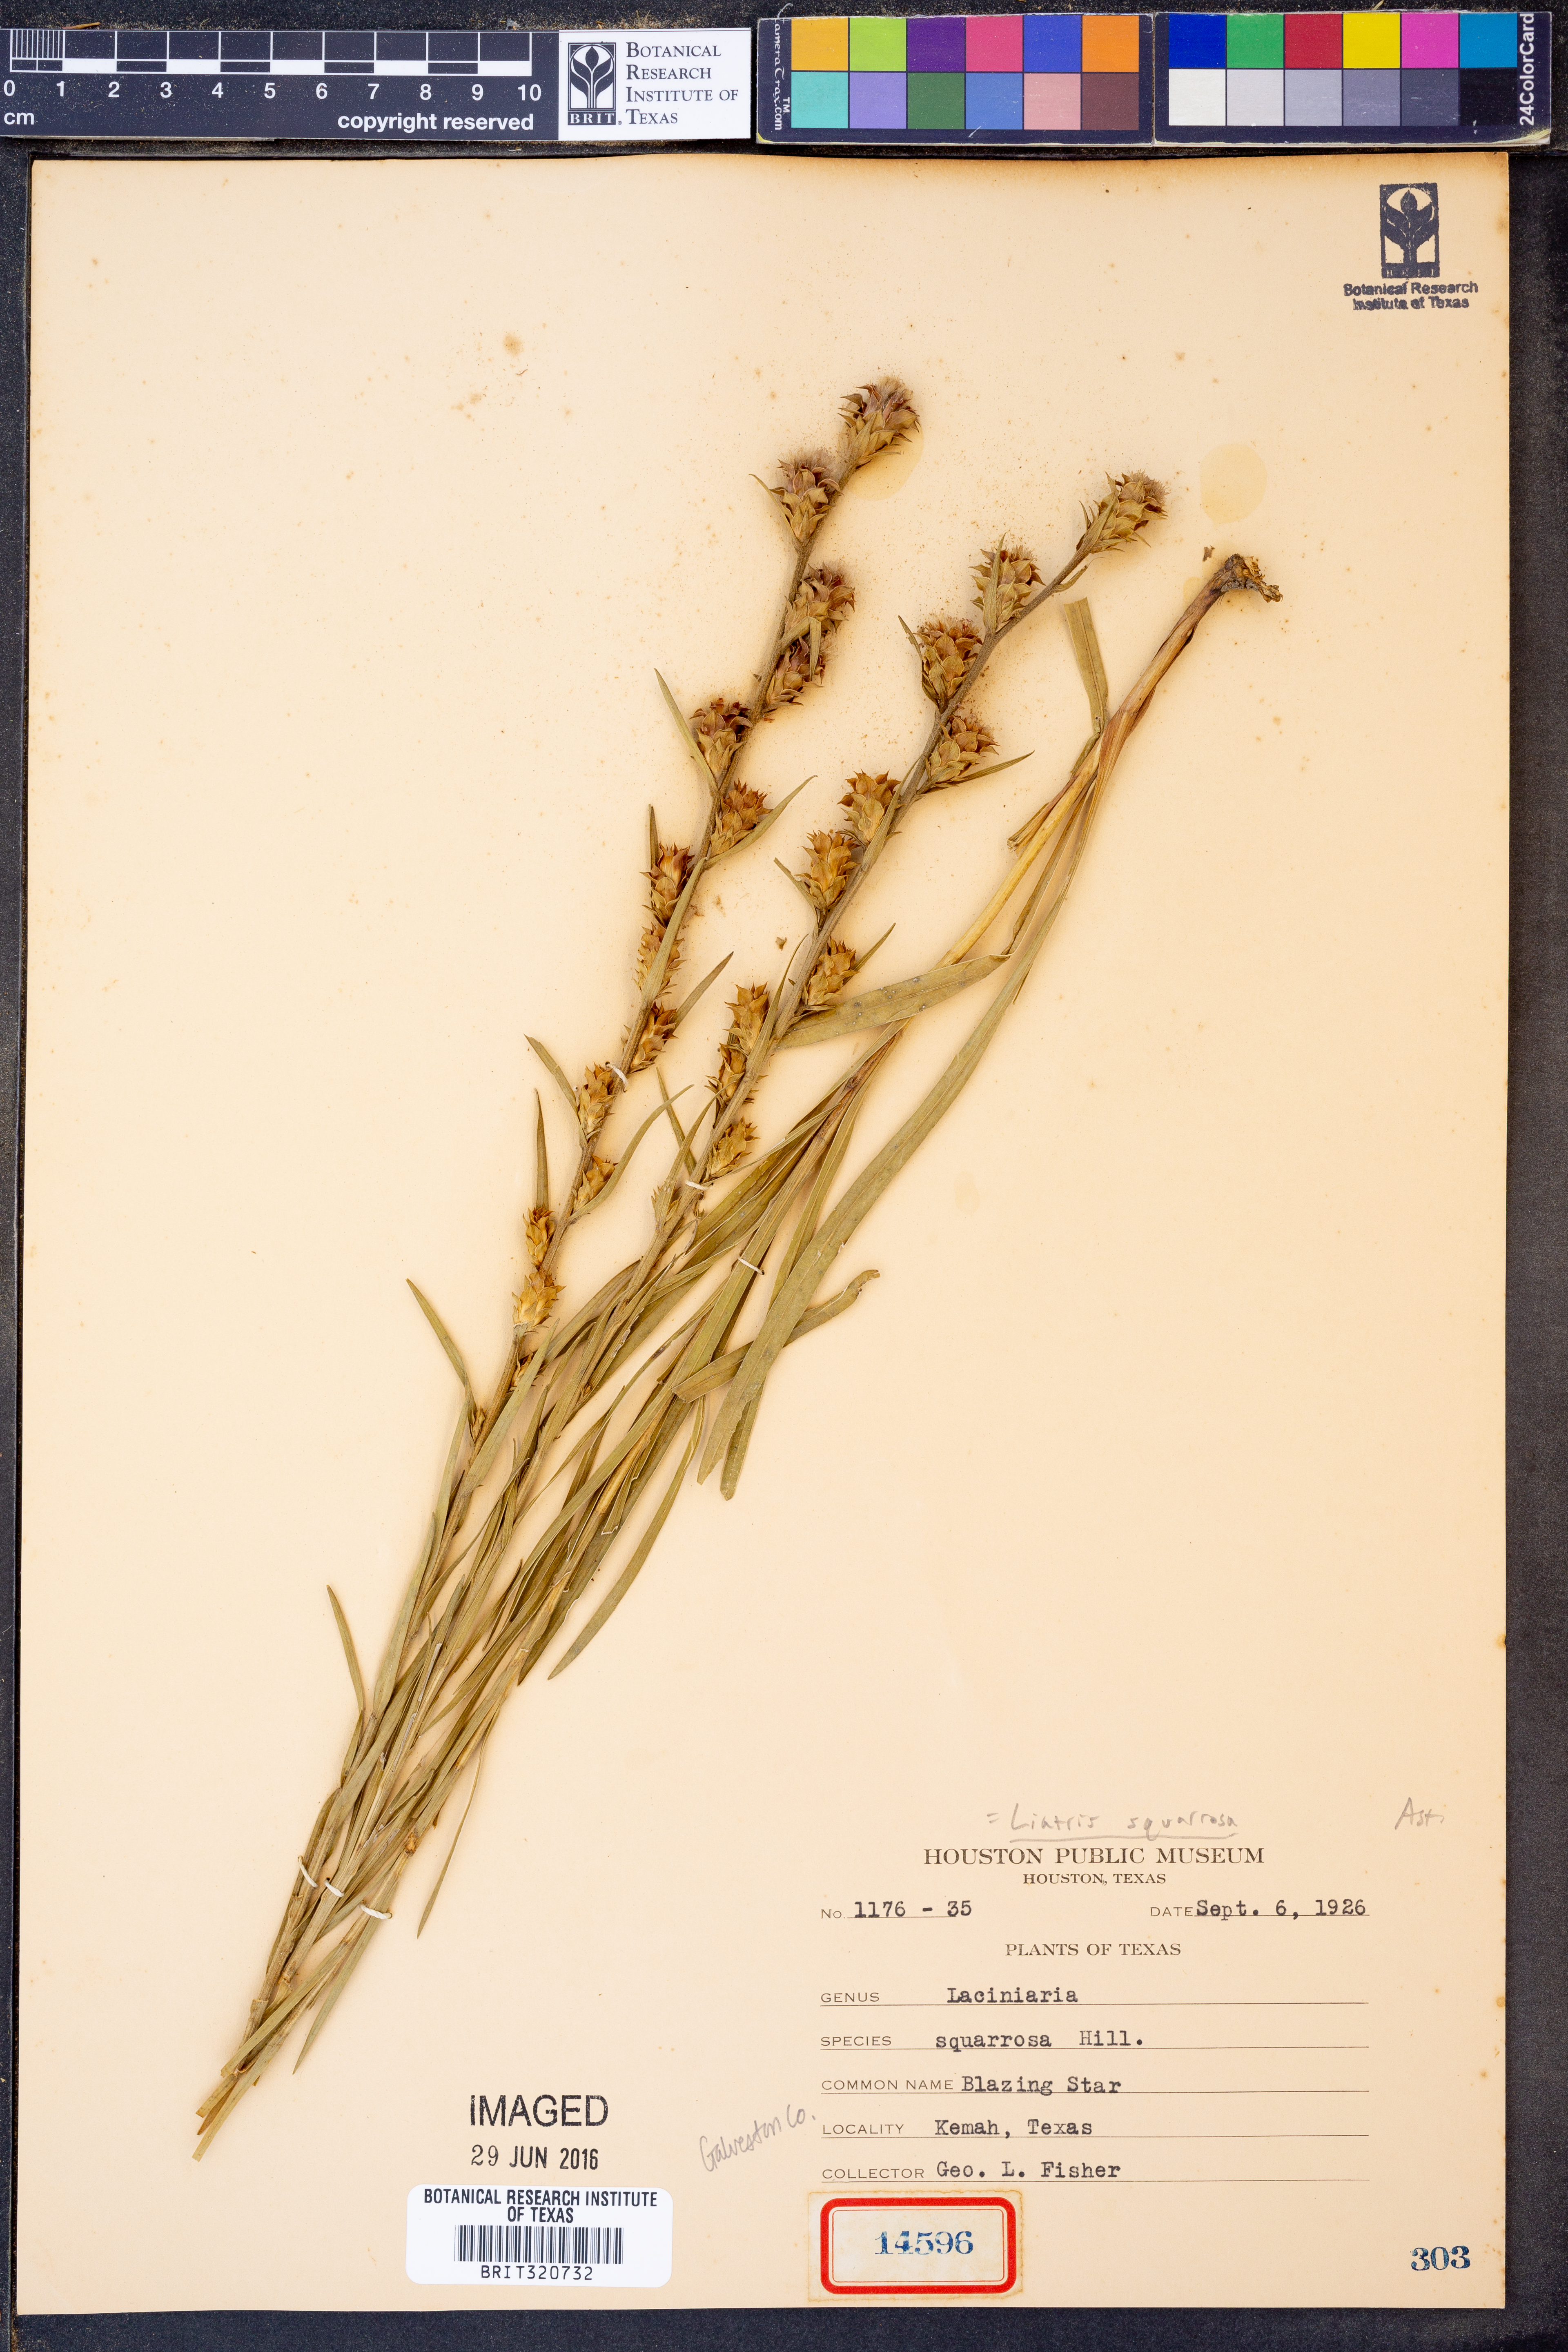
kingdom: Plantae
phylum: Tracheophyta
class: Magnoliopsida
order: Asterales
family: Asteraceae
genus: Liatris
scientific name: Liatris squarrosa
